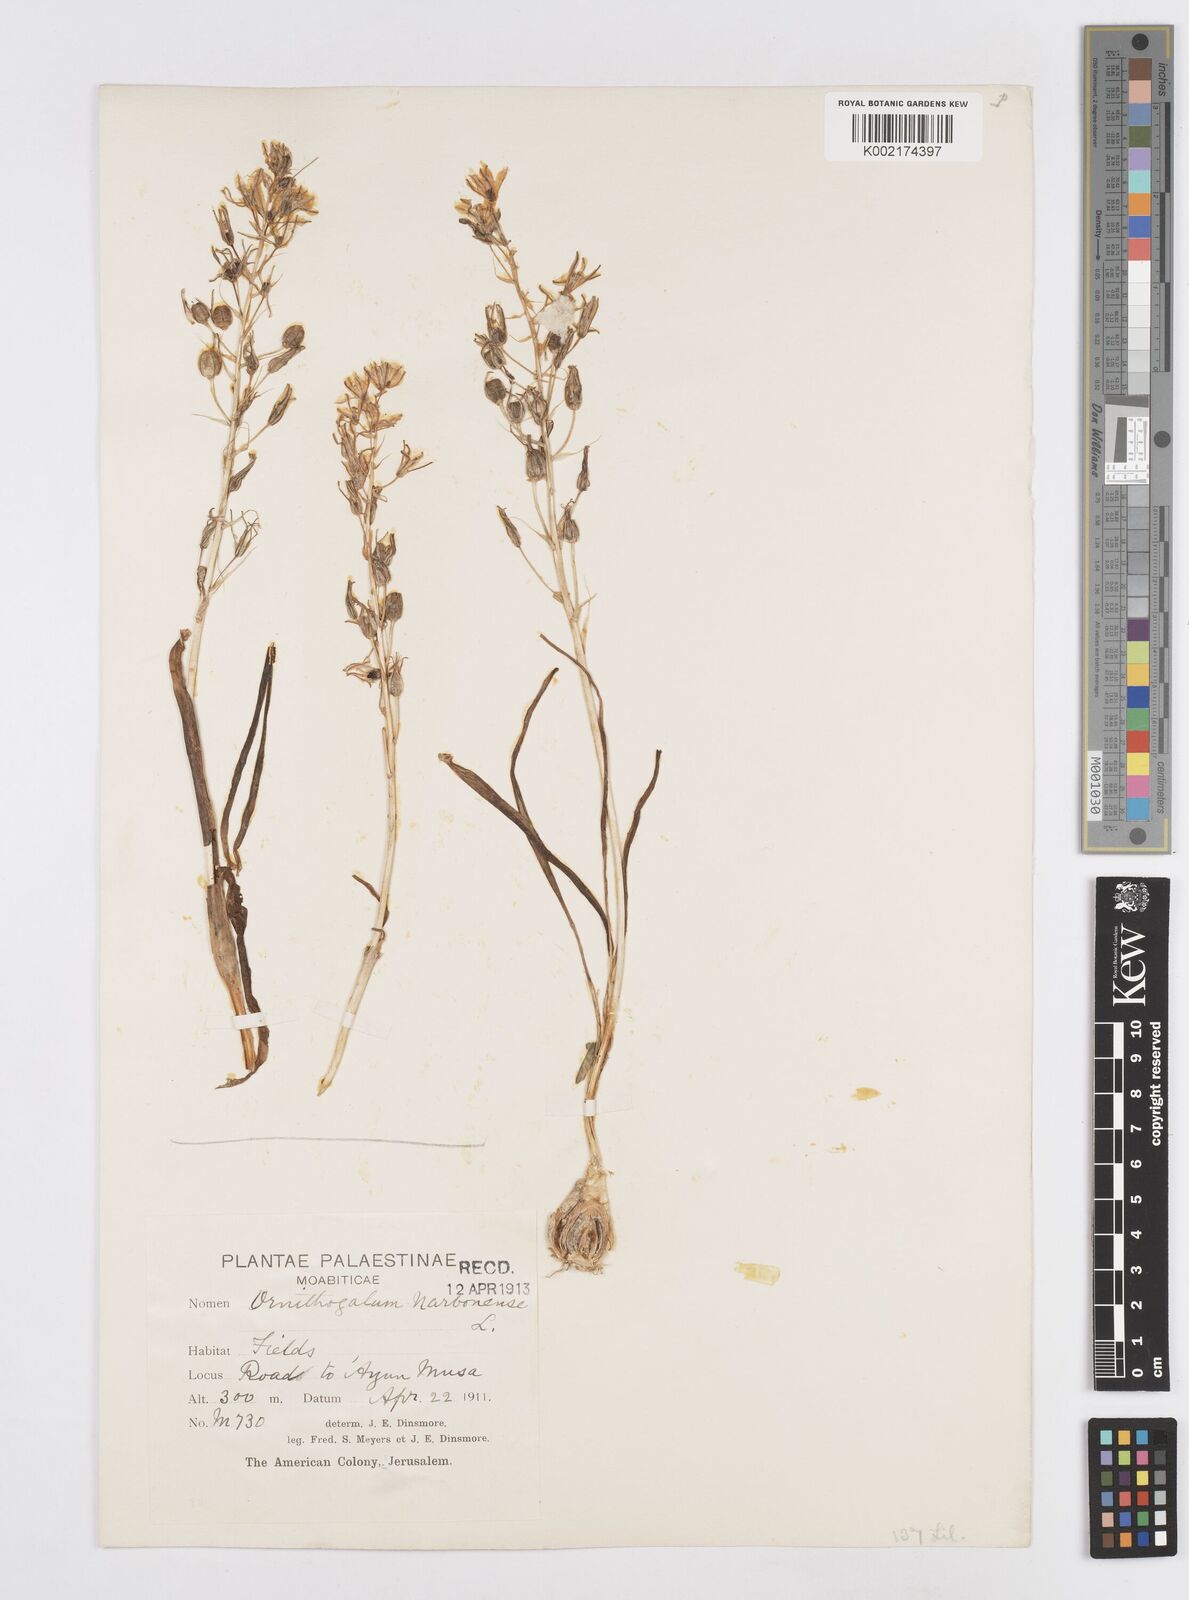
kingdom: Plantae
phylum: Tracheophyta
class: Liliopsida
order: Asparagales
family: Asparagaceae
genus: Ornithogalum
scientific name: Ornithogalum narbonense
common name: Bath-asparagus
